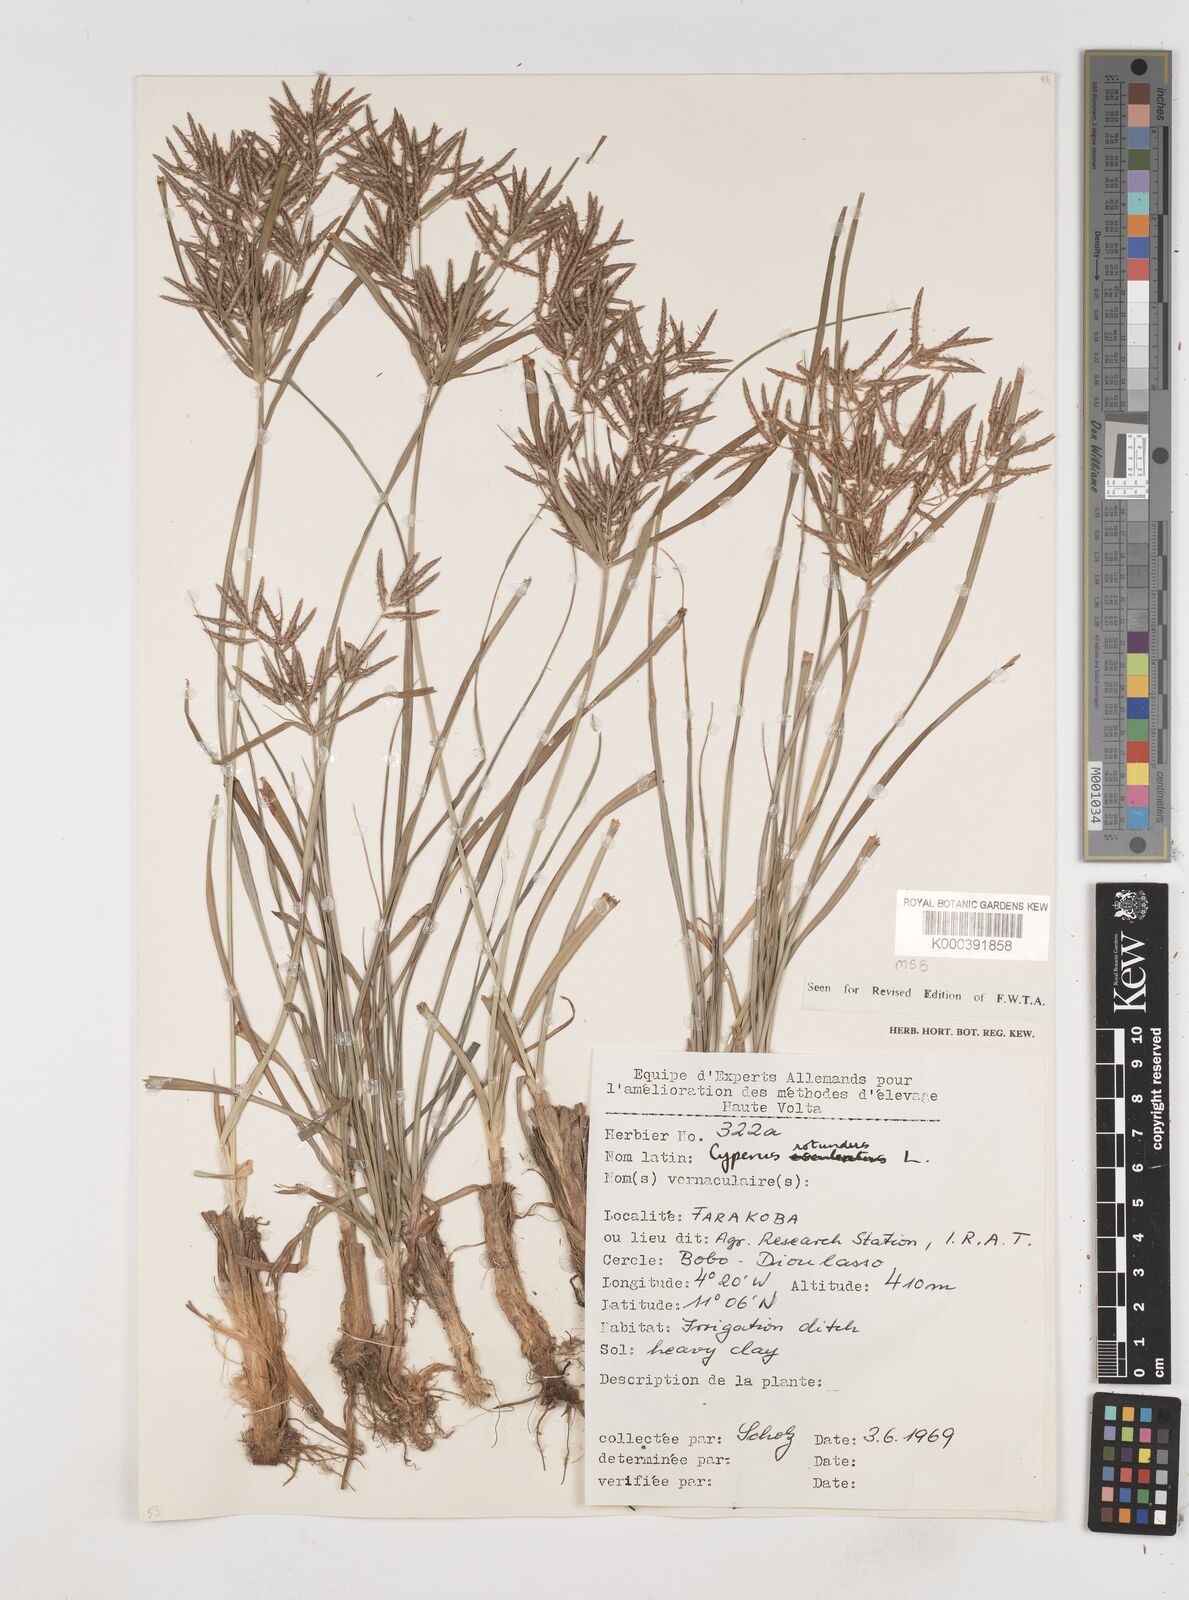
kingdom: Plantae
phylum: Tracheophyta
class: Liliopsida
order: Poales
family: Cyperaceae
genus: Cyperus
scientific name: Cyperus rotundus
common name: Nutgrass
